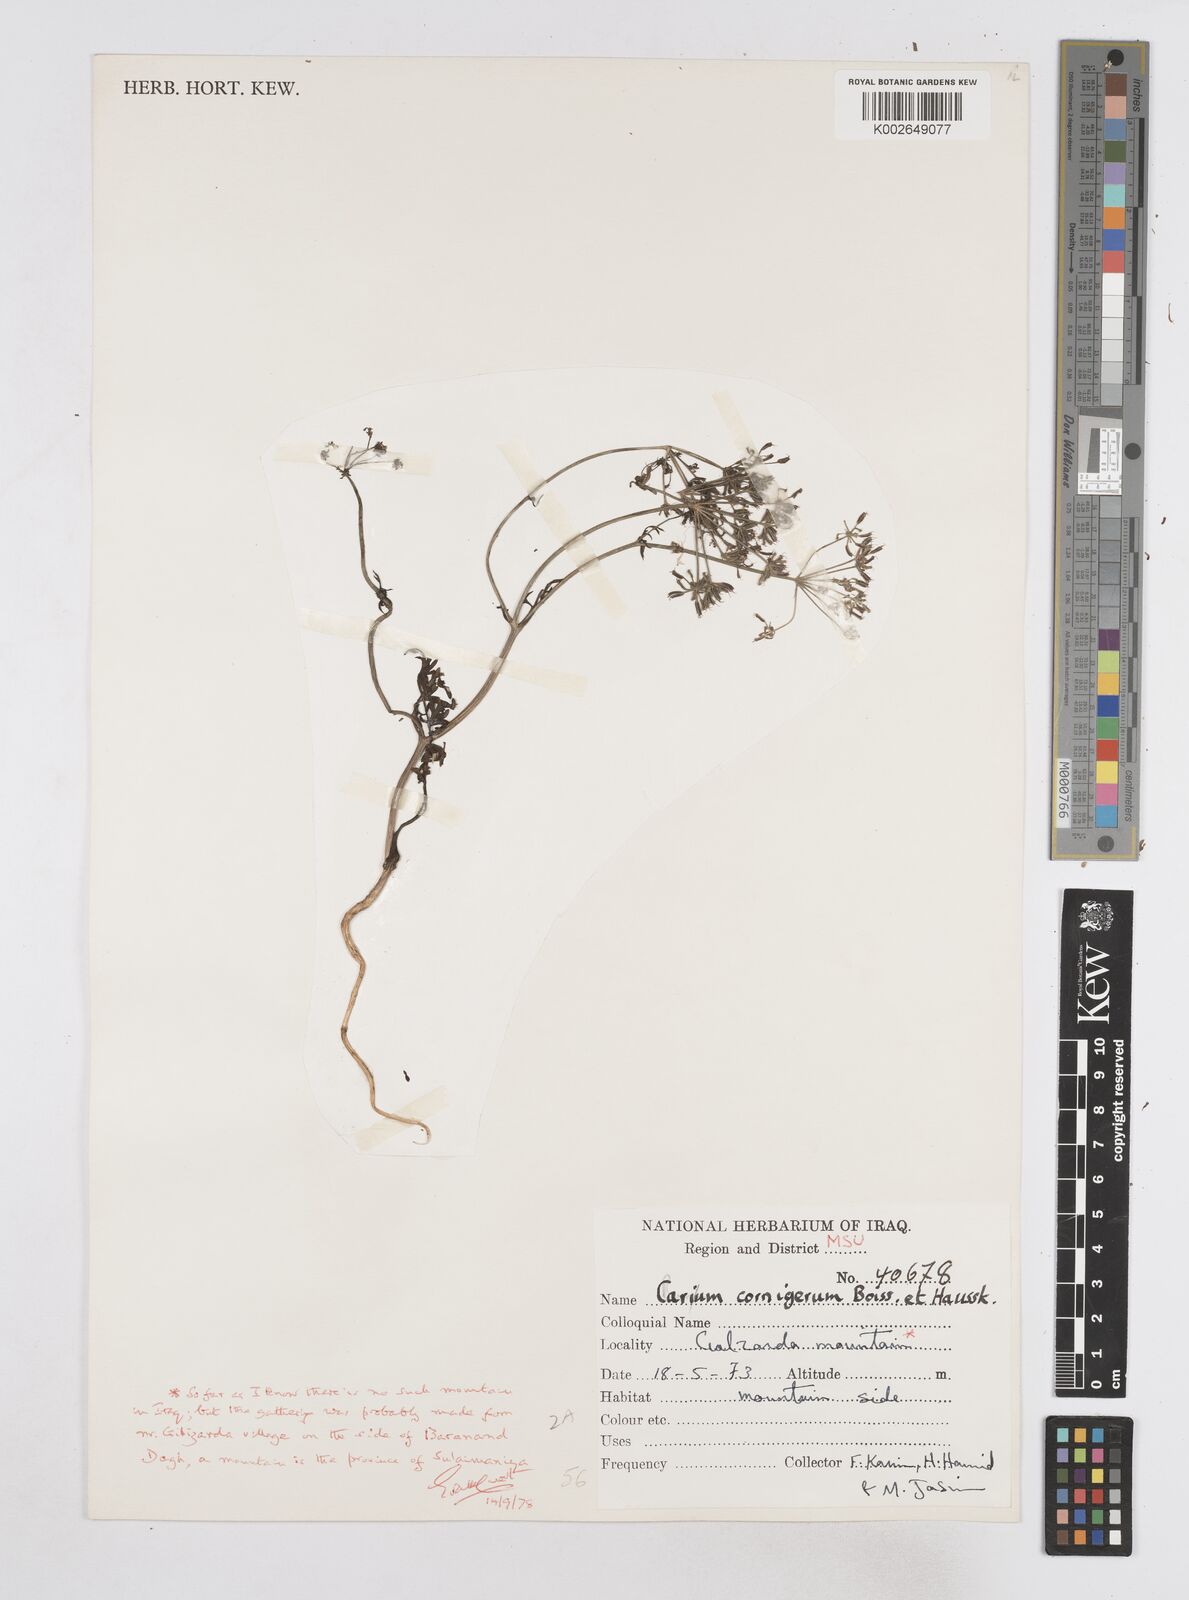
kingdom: Plantae
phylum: Tracheophyta
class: Magnoliopsida
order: Apiales
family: Apiaceae
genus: Bunium
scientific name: Bunium cornigerum
